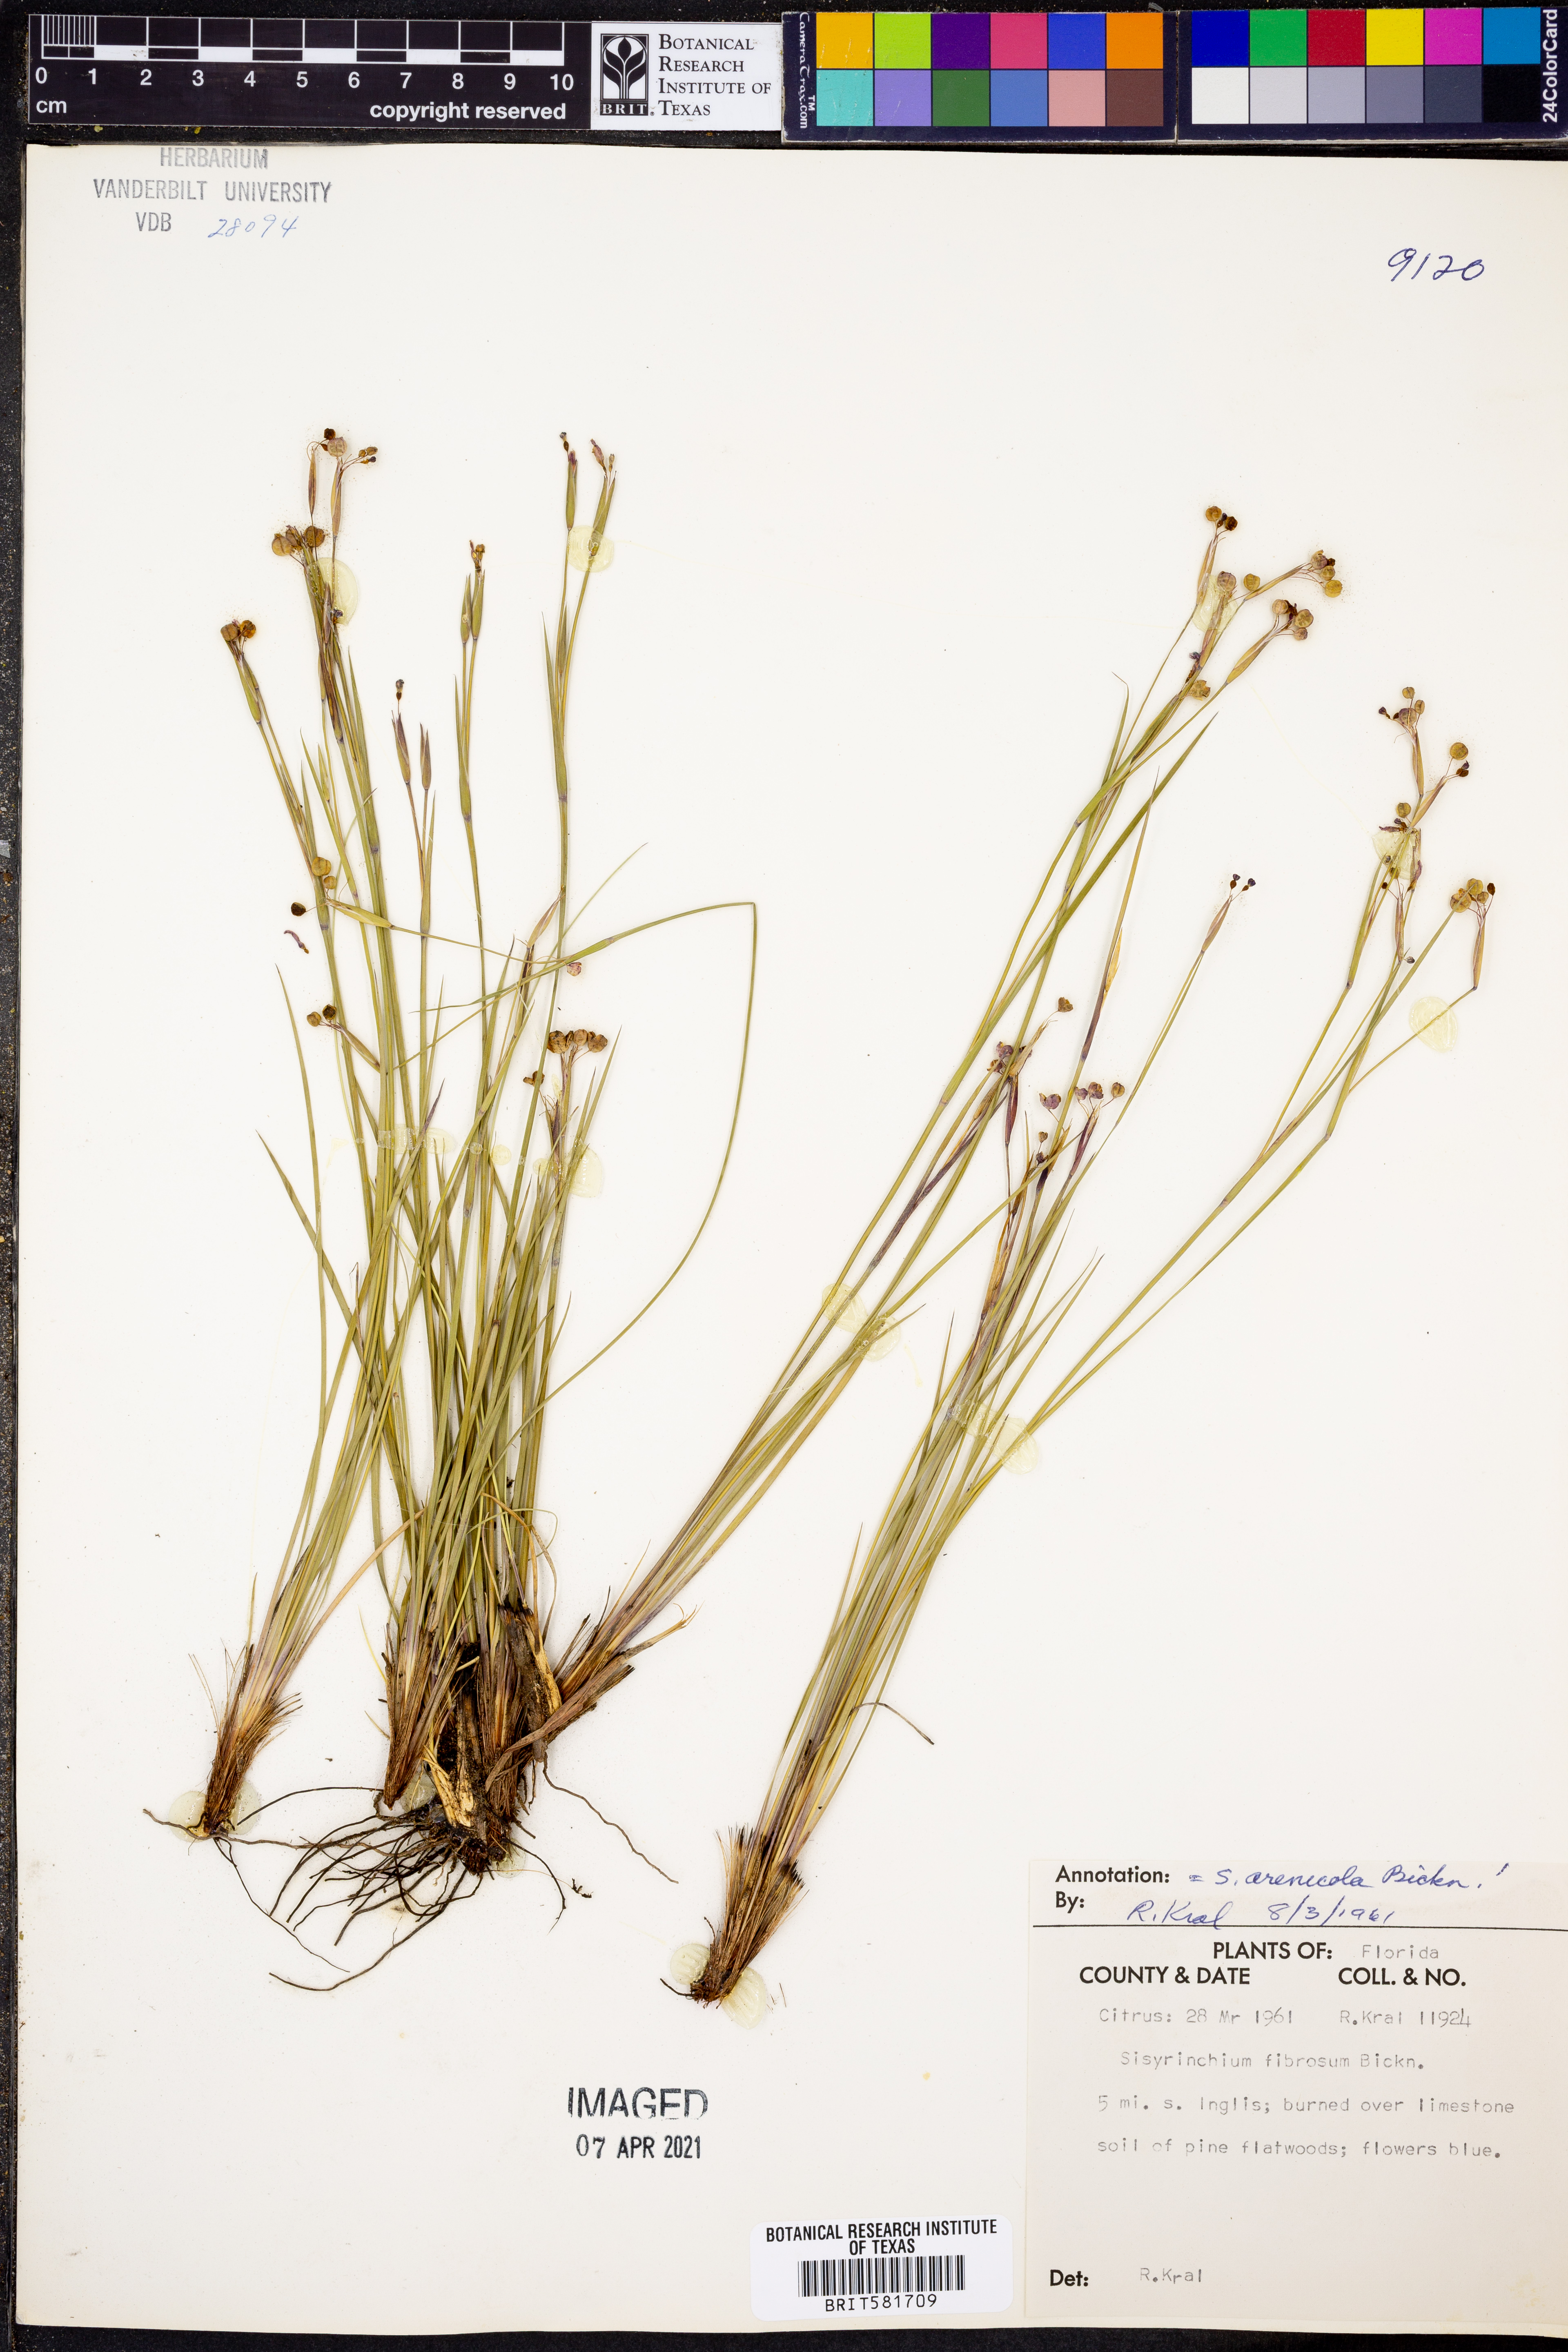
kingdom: Plantae
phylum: Tracheophyta
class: Liliopsida
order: Asparagales
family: Iridaceae
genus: Sisyrinchium
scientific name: Sisyrinchium fuscatum
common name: Coastal plain blue-eyed-grass
